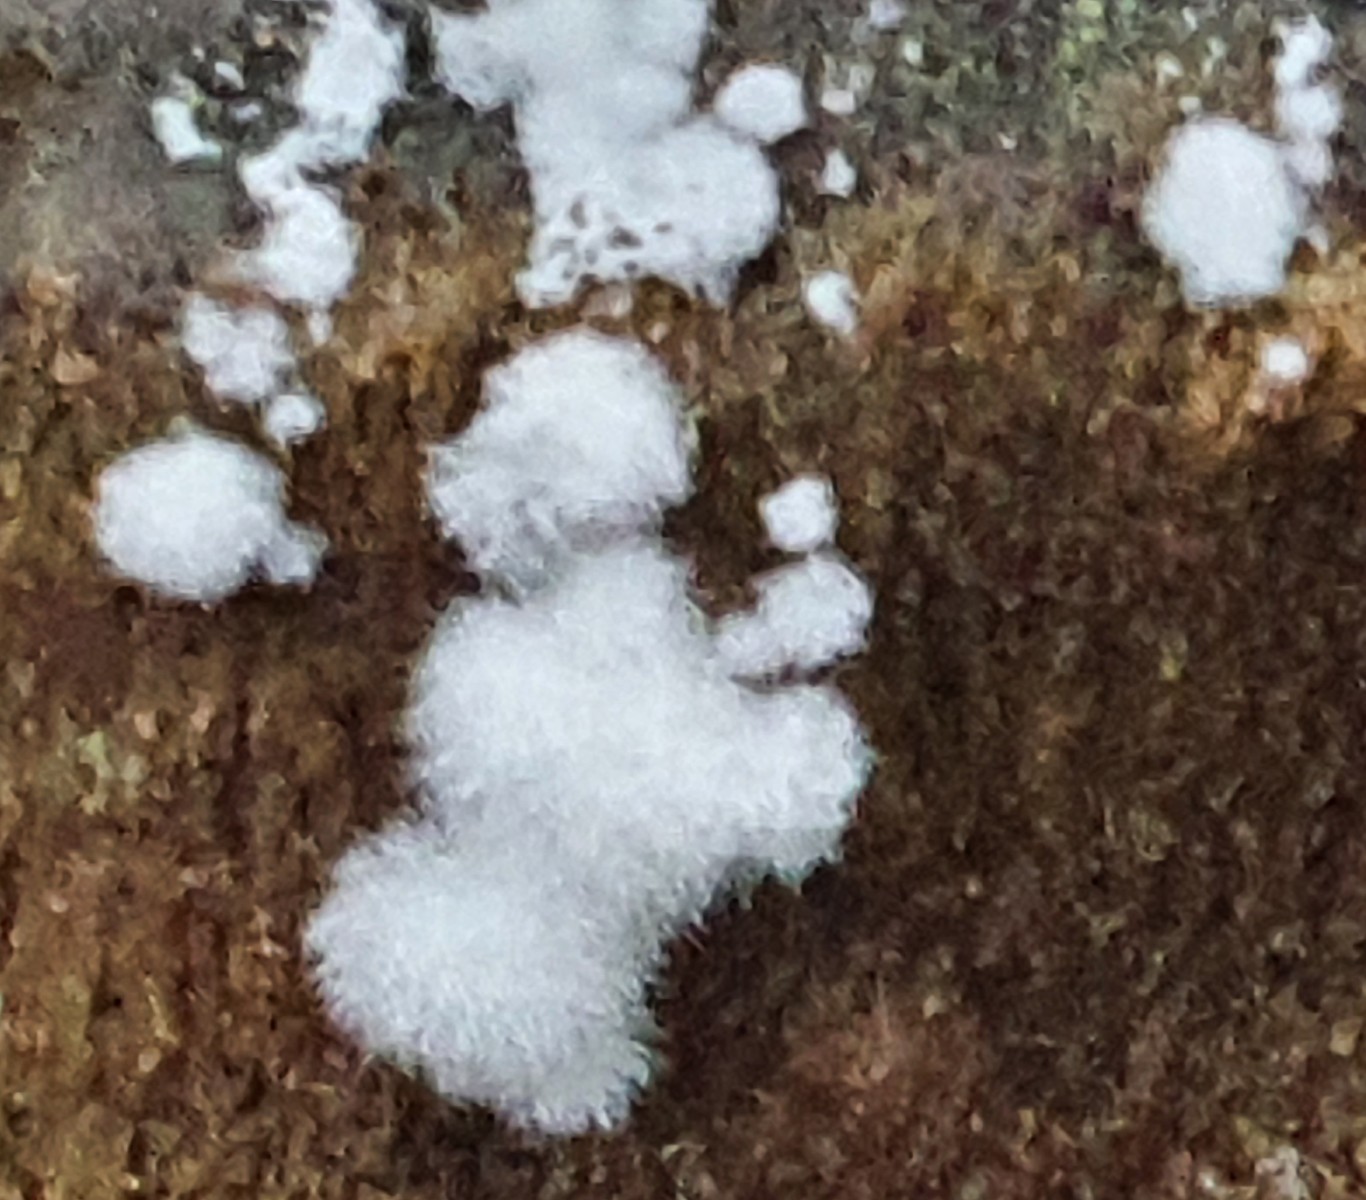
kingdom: Fungi
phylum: Basidiomycota
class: Agaricomycetes
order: Corticiales
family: Corticiaceae
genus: Lyomyces
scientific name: Lyomyces sambuci
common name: almindelig hyldehinde
